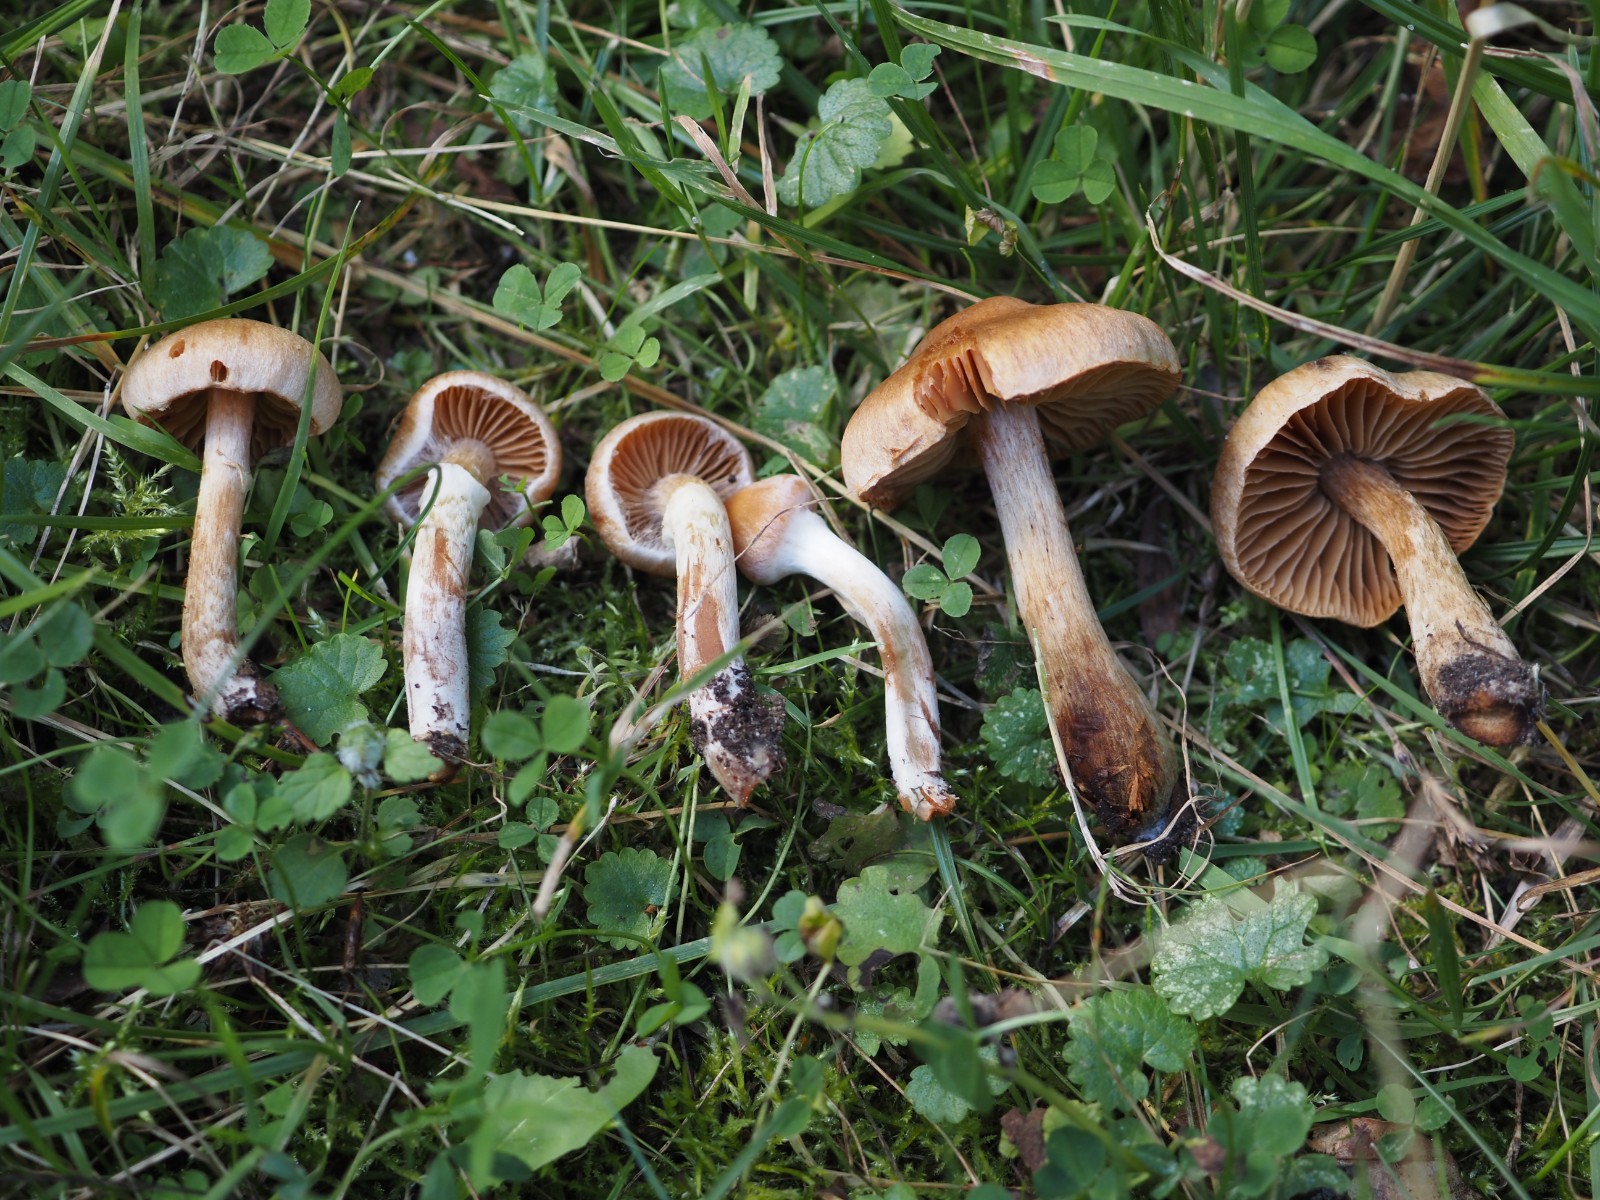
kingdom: Fungi
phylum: Basidiomycota
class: Agaricomycetes
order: Agaricales
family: Cortinariaceae
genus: Cortinarius
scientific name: Cortinarius hinnuleus
